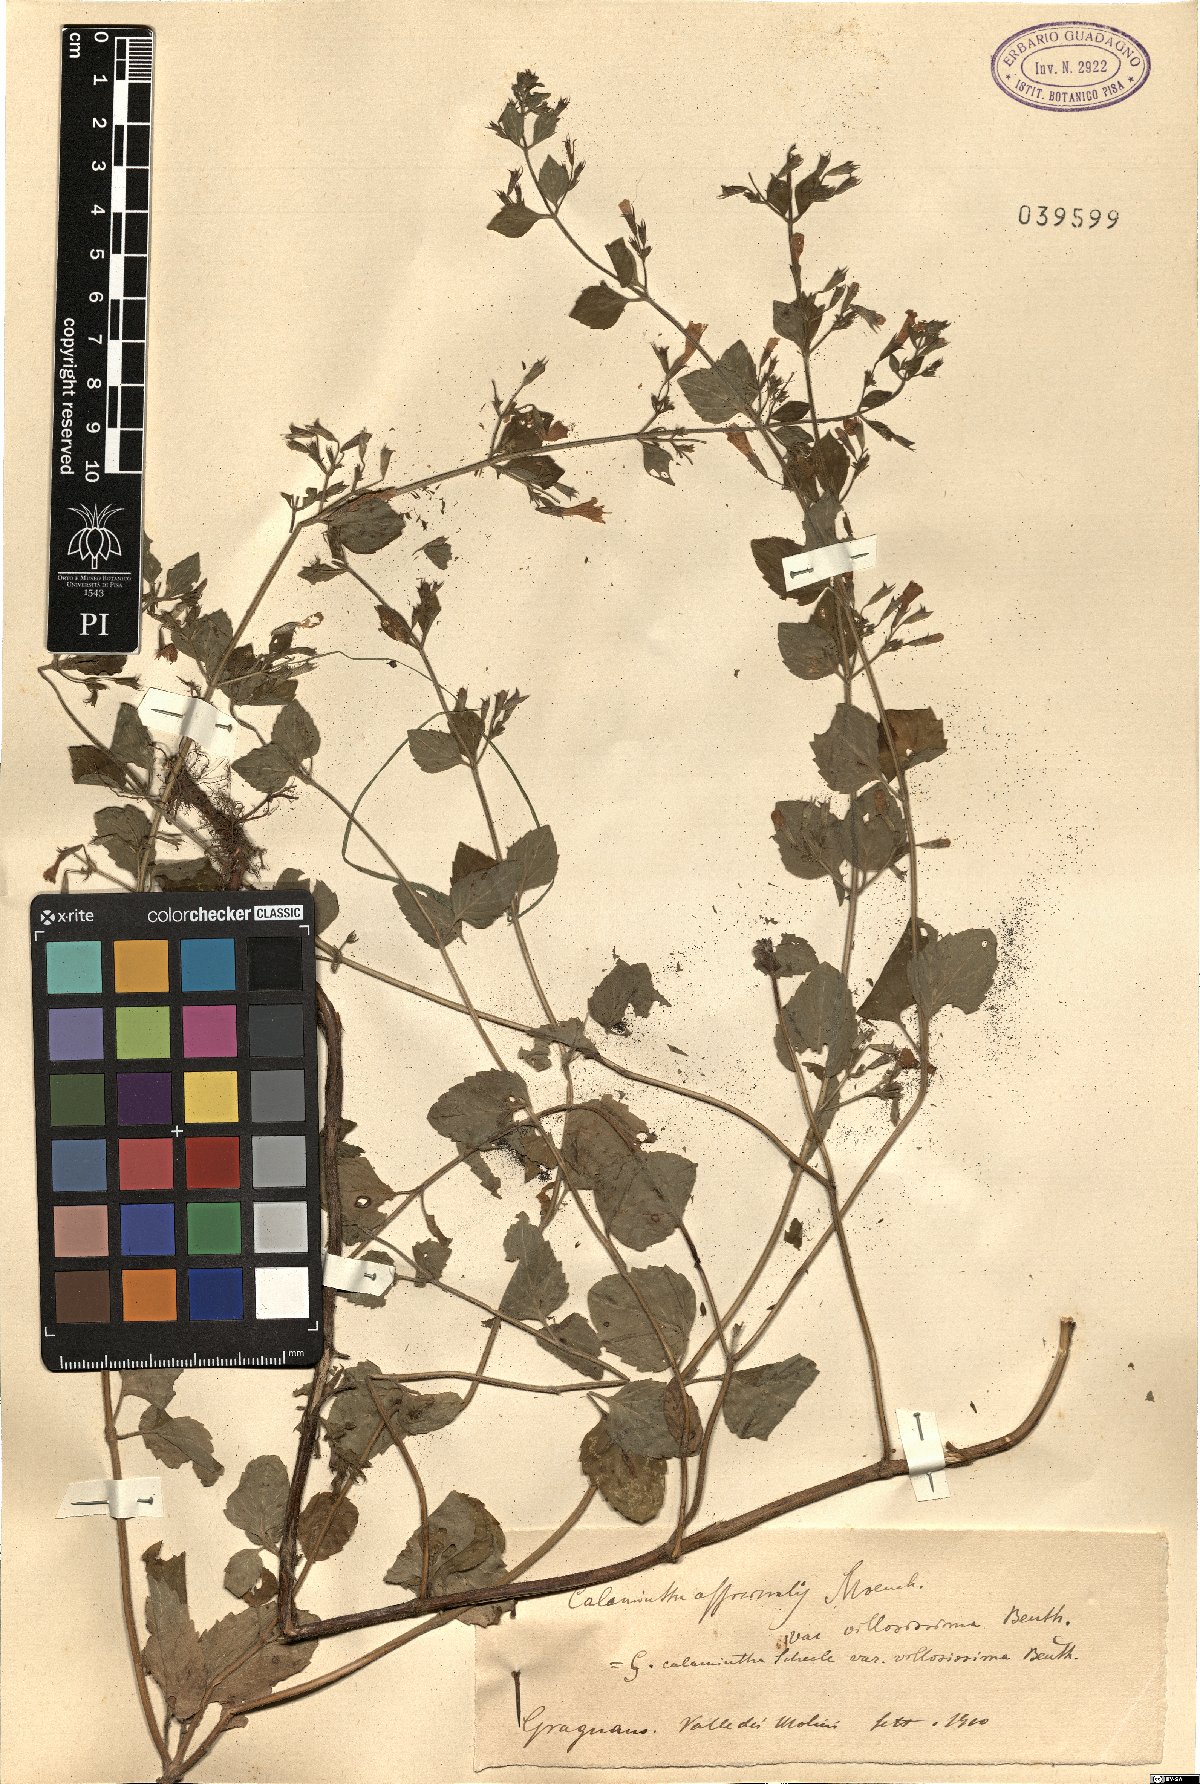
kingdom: Plantae
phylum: Tracheophyta
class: Magnoliopsida
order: Lamiales
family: Lamiaceae
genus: Clinopodium
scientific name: Clinopodium nepeta
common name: Lesser calamint
